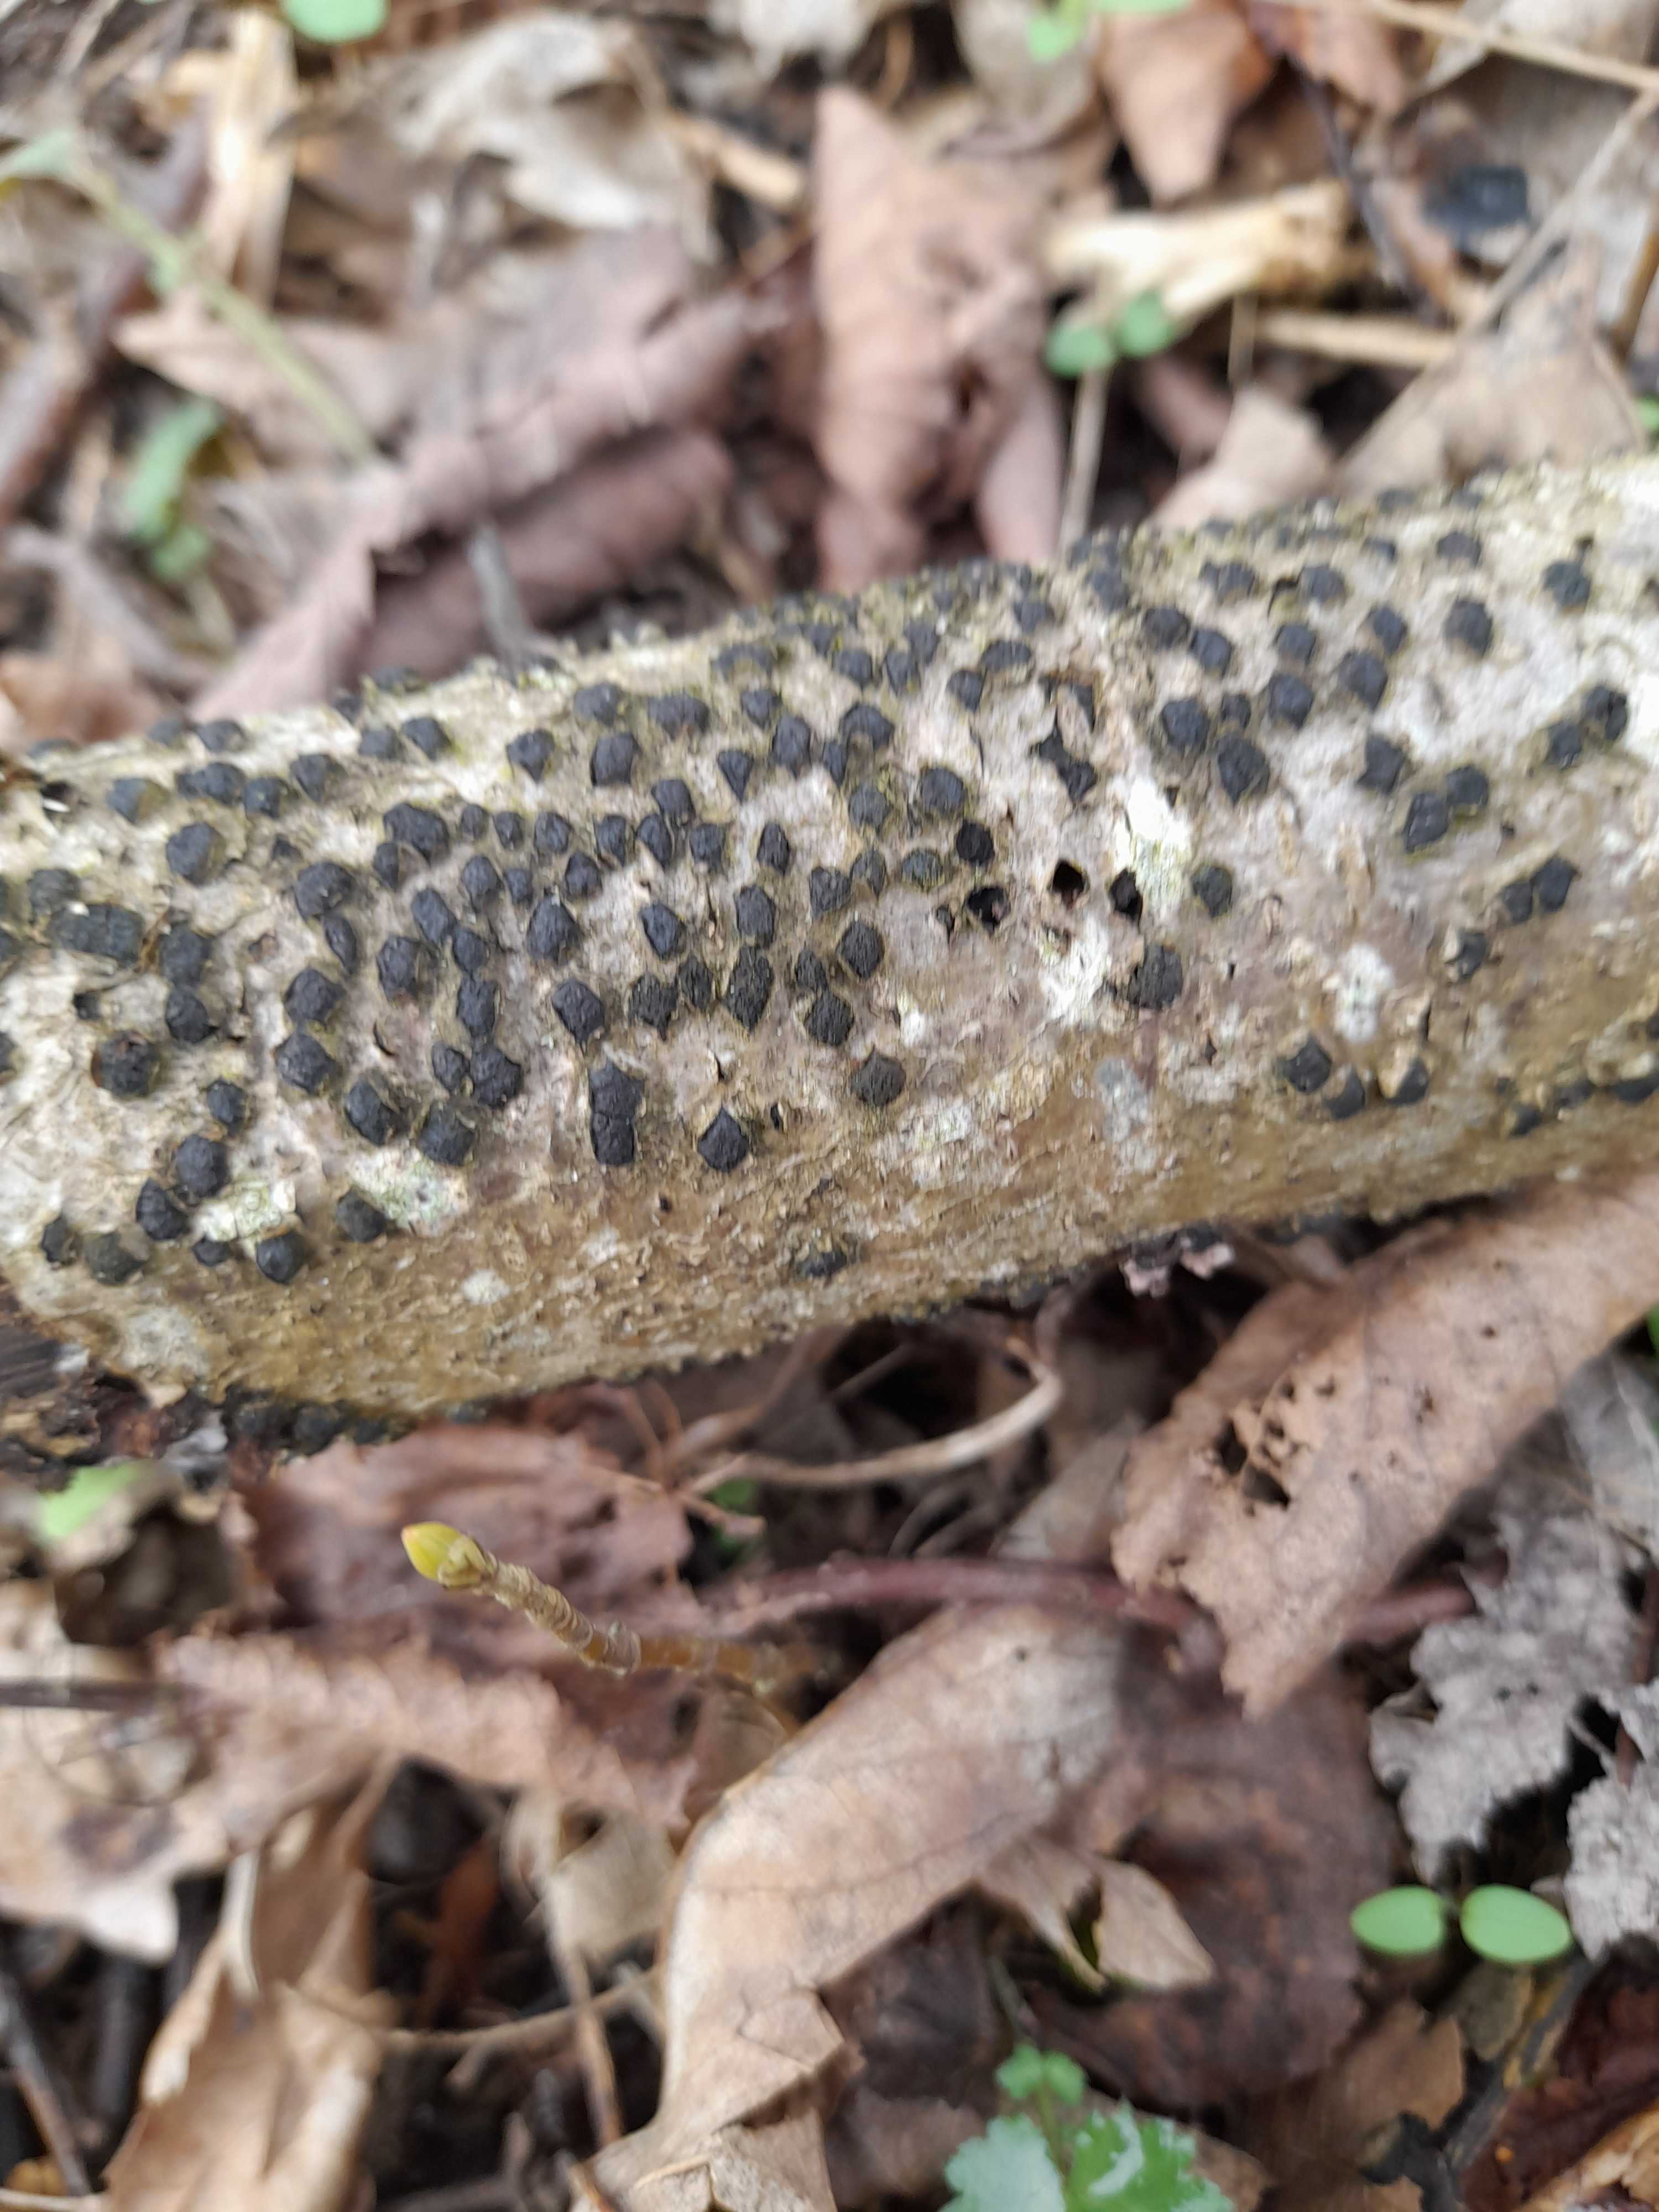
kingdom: Fungi
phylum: Ascomycota
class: Sordariomycetes
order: Xylariales
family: Diatrypaceae
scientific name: Diatrypaceae
